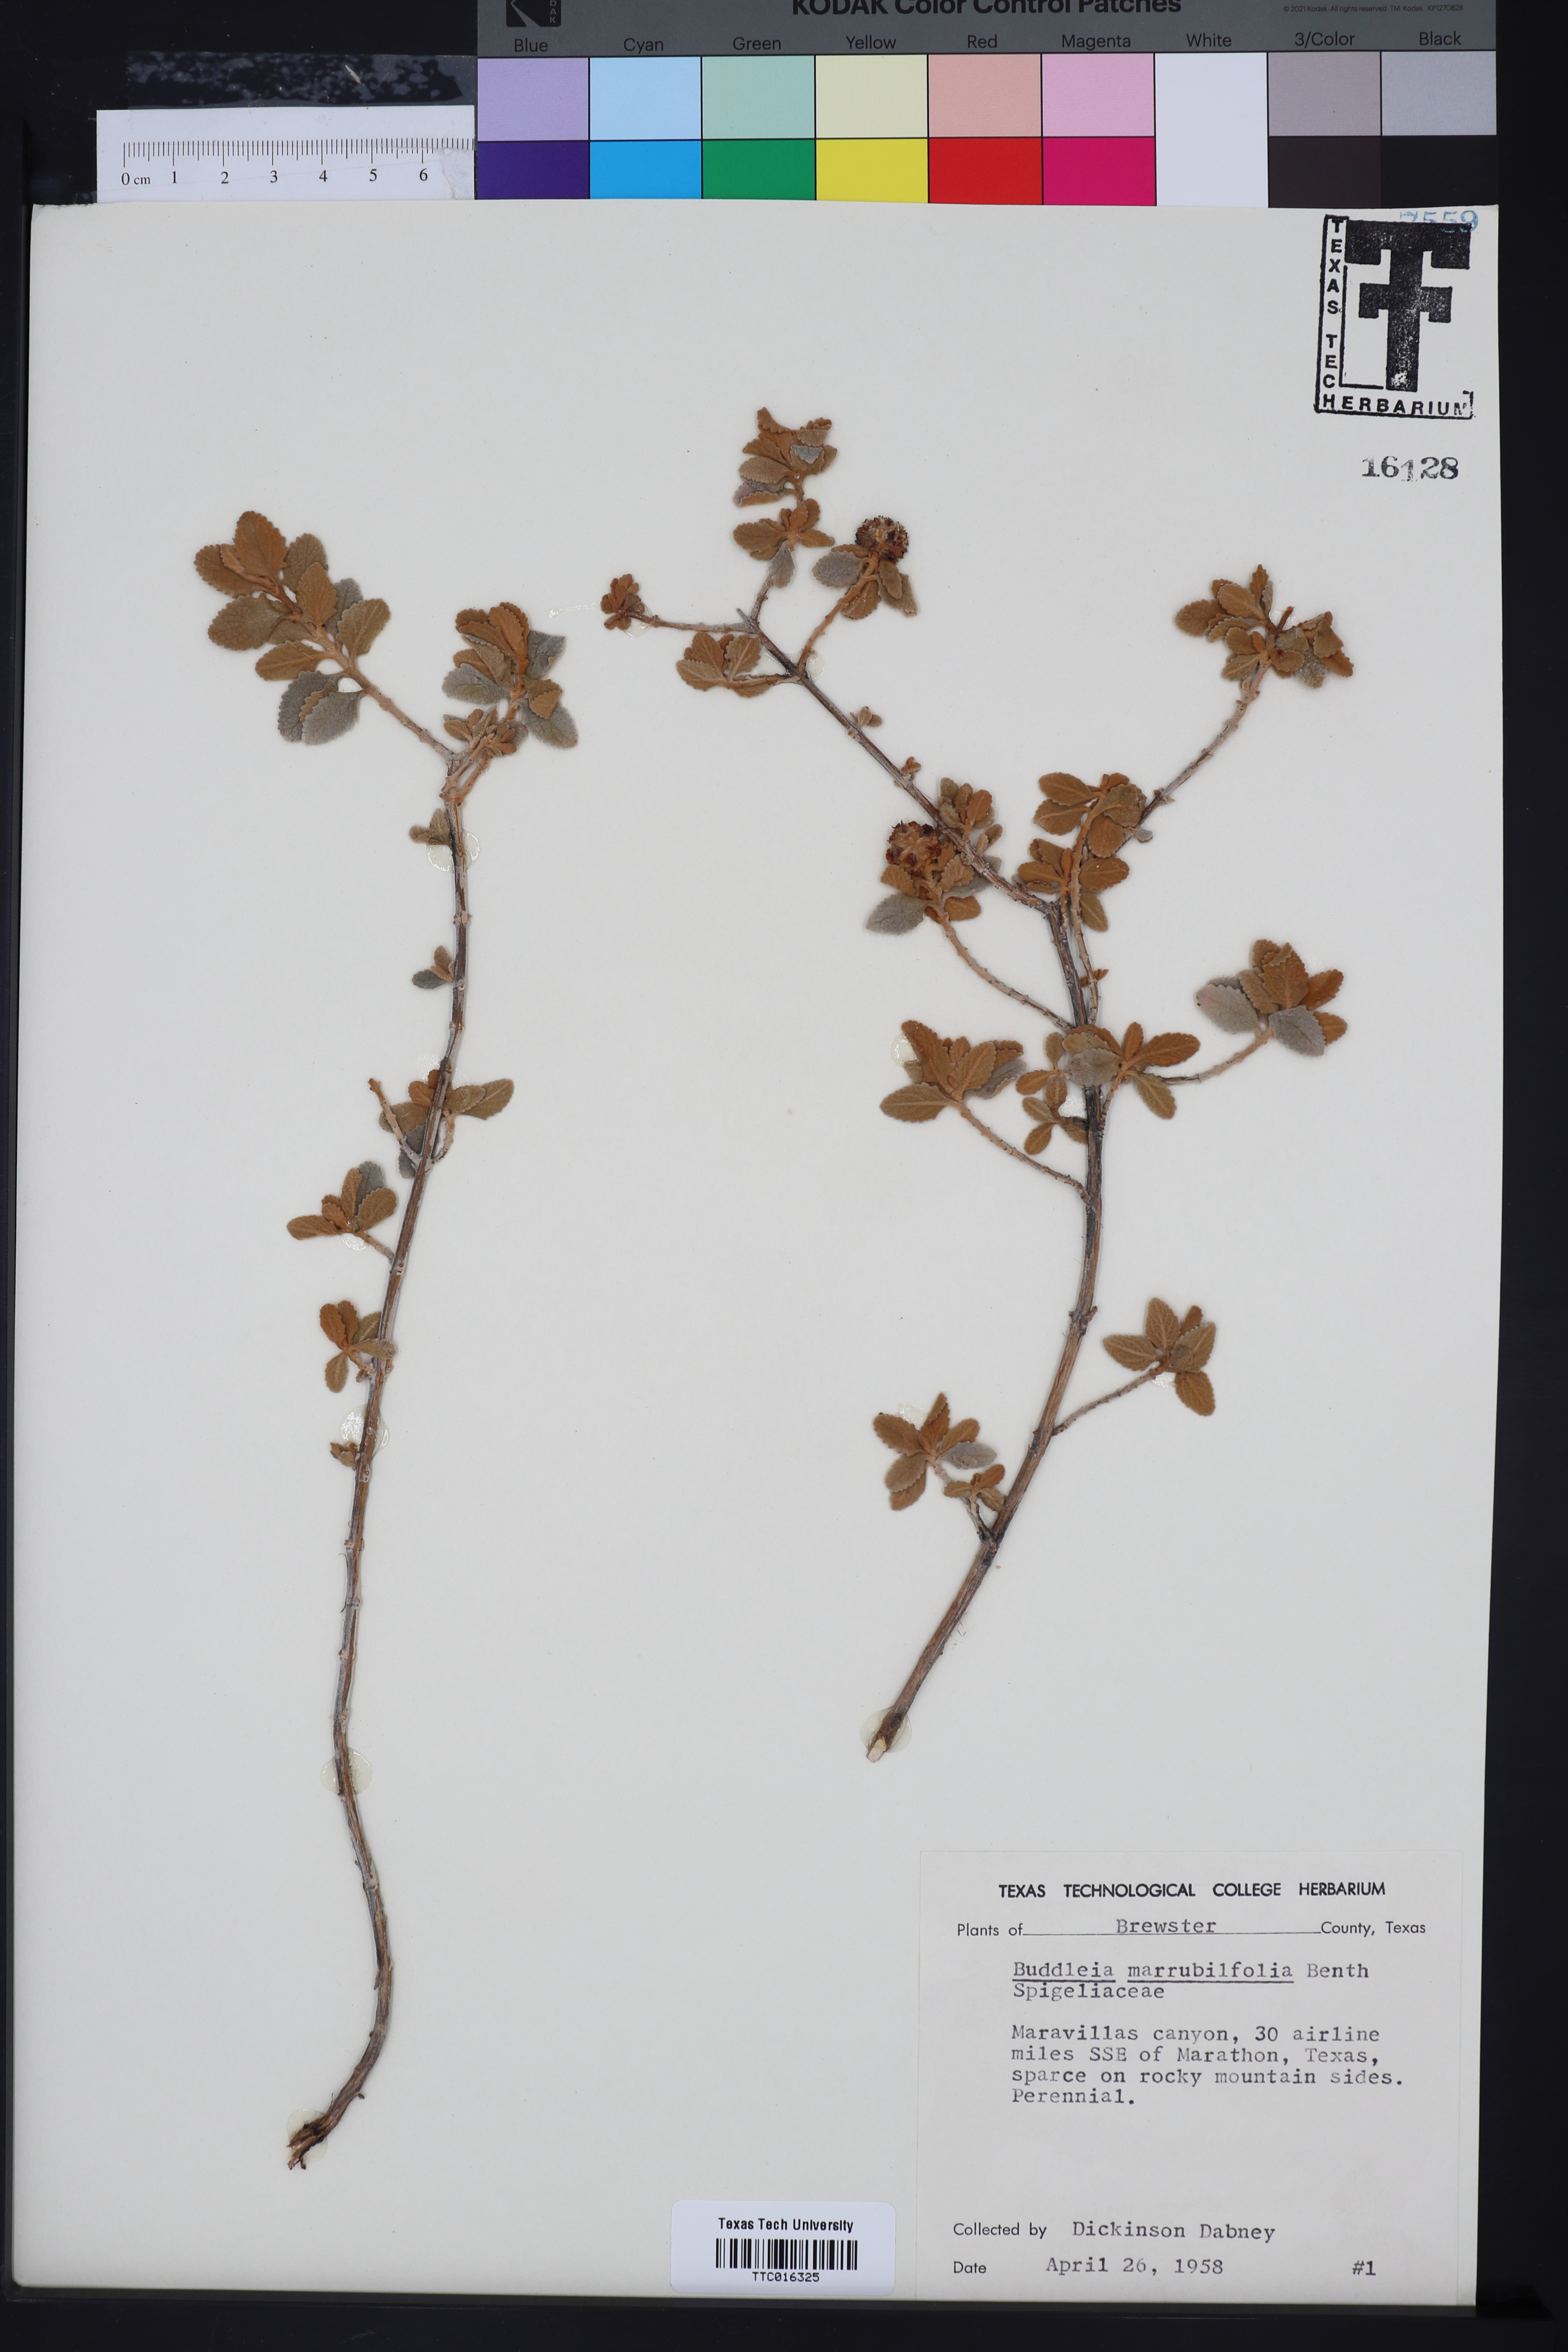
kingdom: Plantae
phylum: Tracheophyta
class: Magnoliopsida
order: Lamiales
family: Scrophulariaceae
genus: Buddleja
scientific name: Buddleja marrubiifolia
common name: Woolly butterfly-bush
